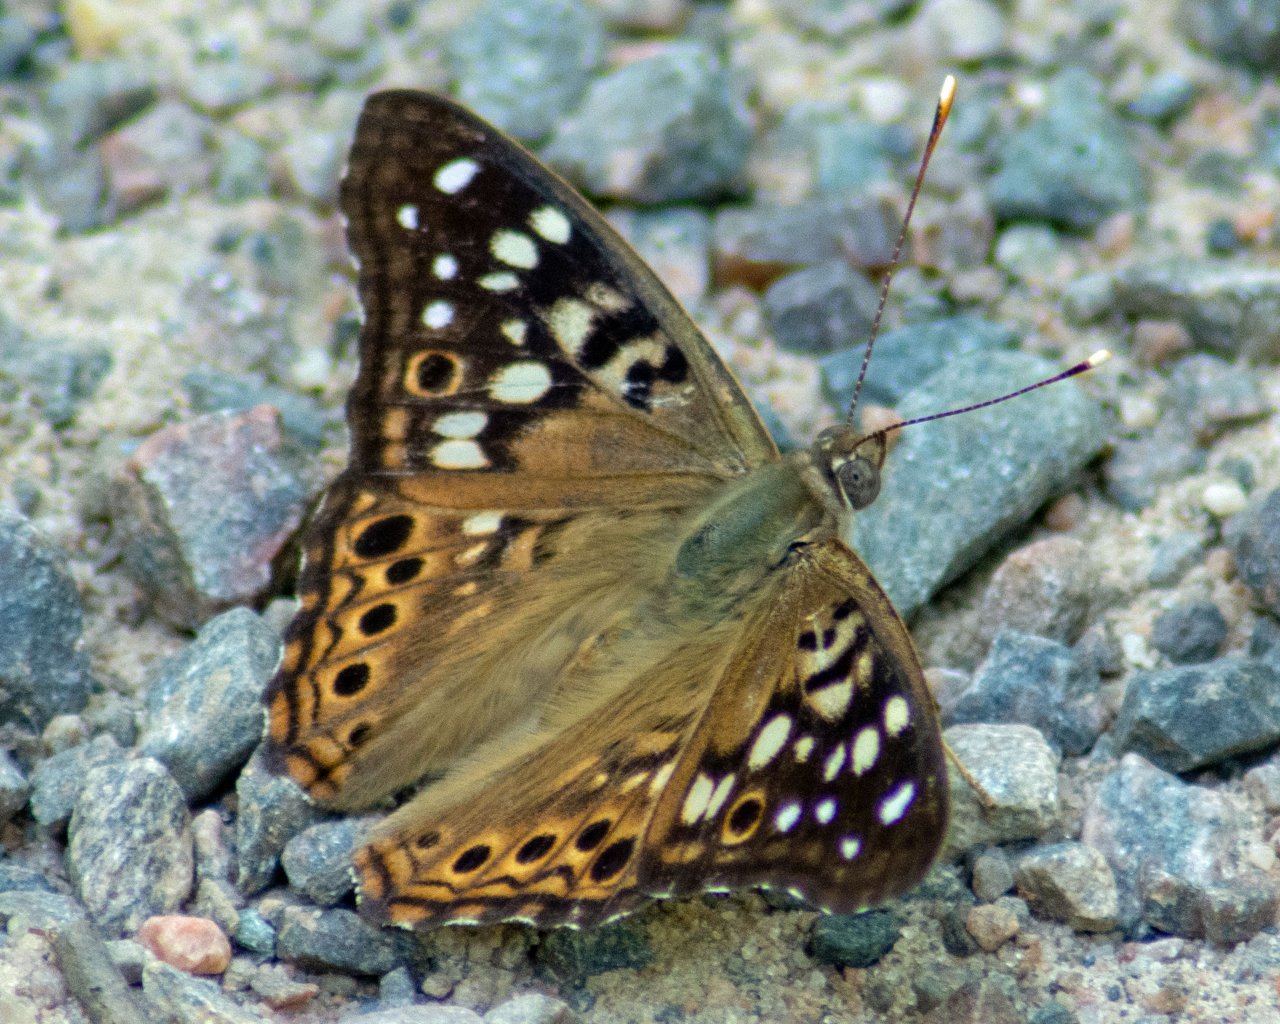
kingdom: Animalia
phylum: Arthropoda
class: Insecta
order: Lepidoptera
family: Nymphalidae
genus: Asterocampa
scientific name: Asterocampa celtis
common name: Hackberry Emperor
